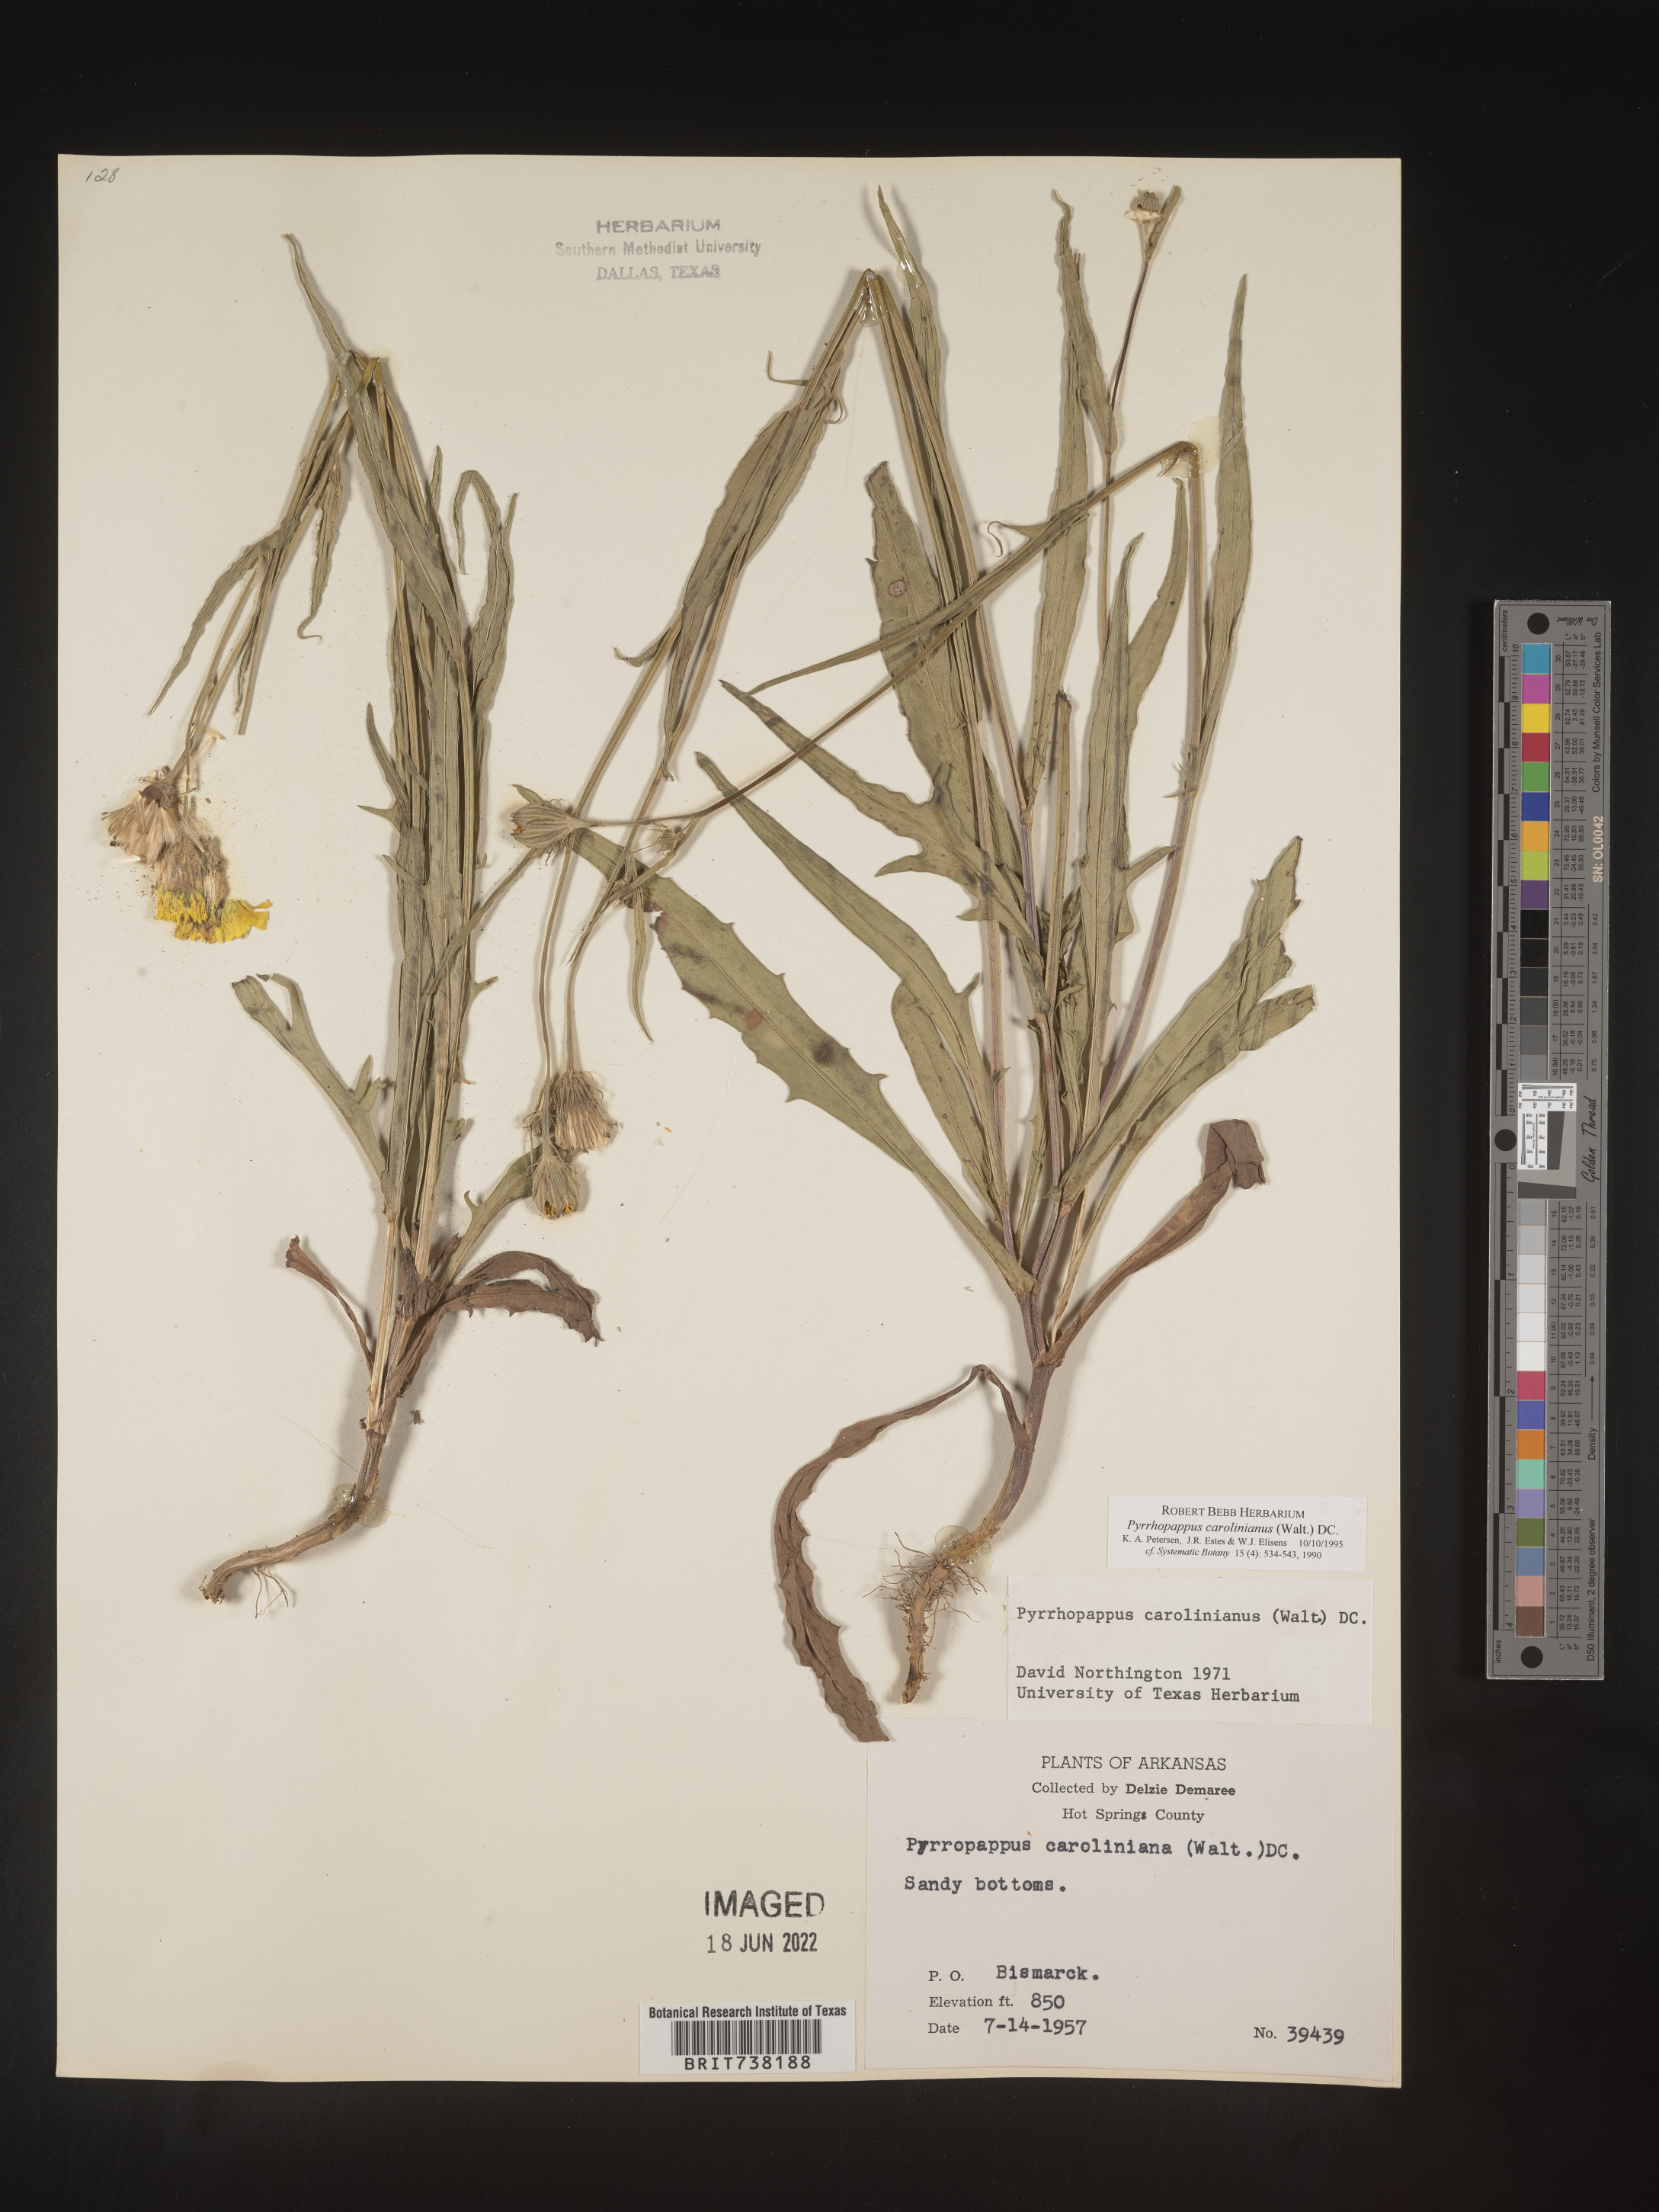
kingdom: Plantae
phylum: Tracheophyta
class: Magnoliopsida
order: Asterales
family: Asteraceae
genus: Pyrrhopappus
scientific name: Pyrrhopappus carolinianus
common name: Carolina desert-chicory
